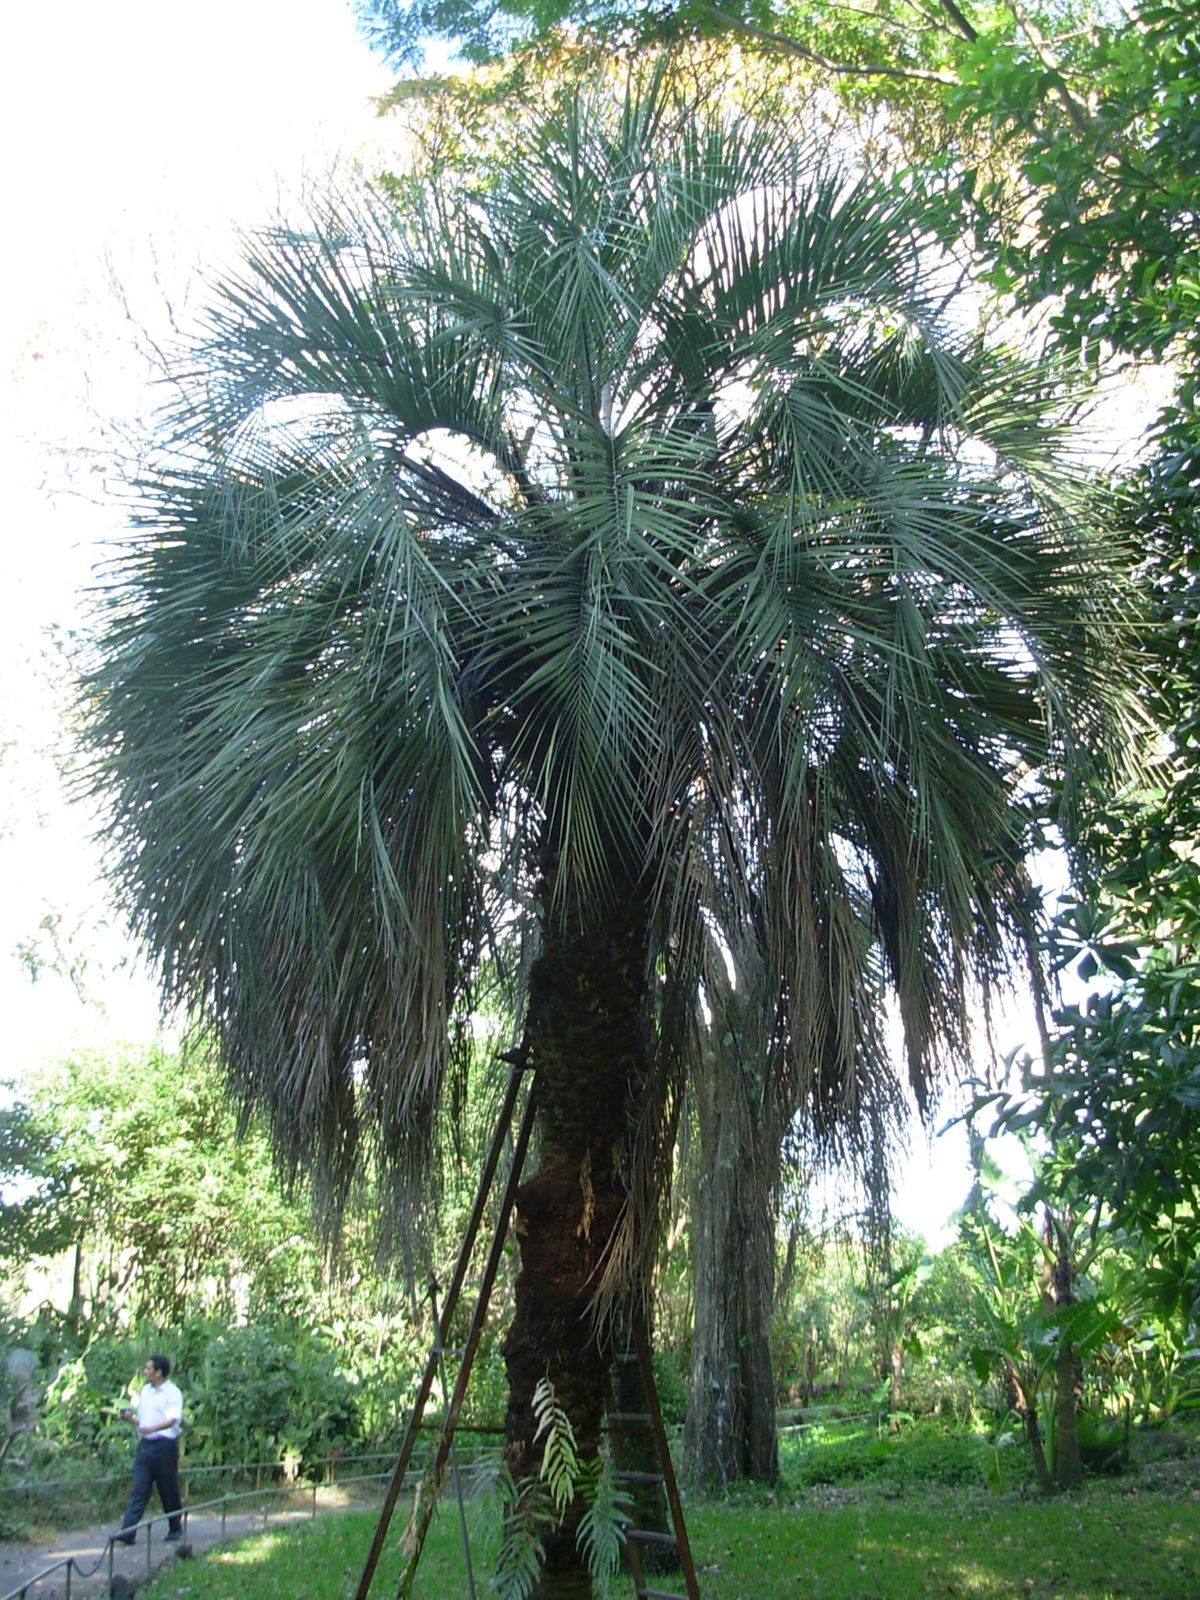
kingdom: Plantae
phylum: Tracheophyta
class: Liliopsida
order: Arecales
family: Arecaceae
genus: Elaeis
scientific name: Elaeis guineensis
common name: Oil palm
